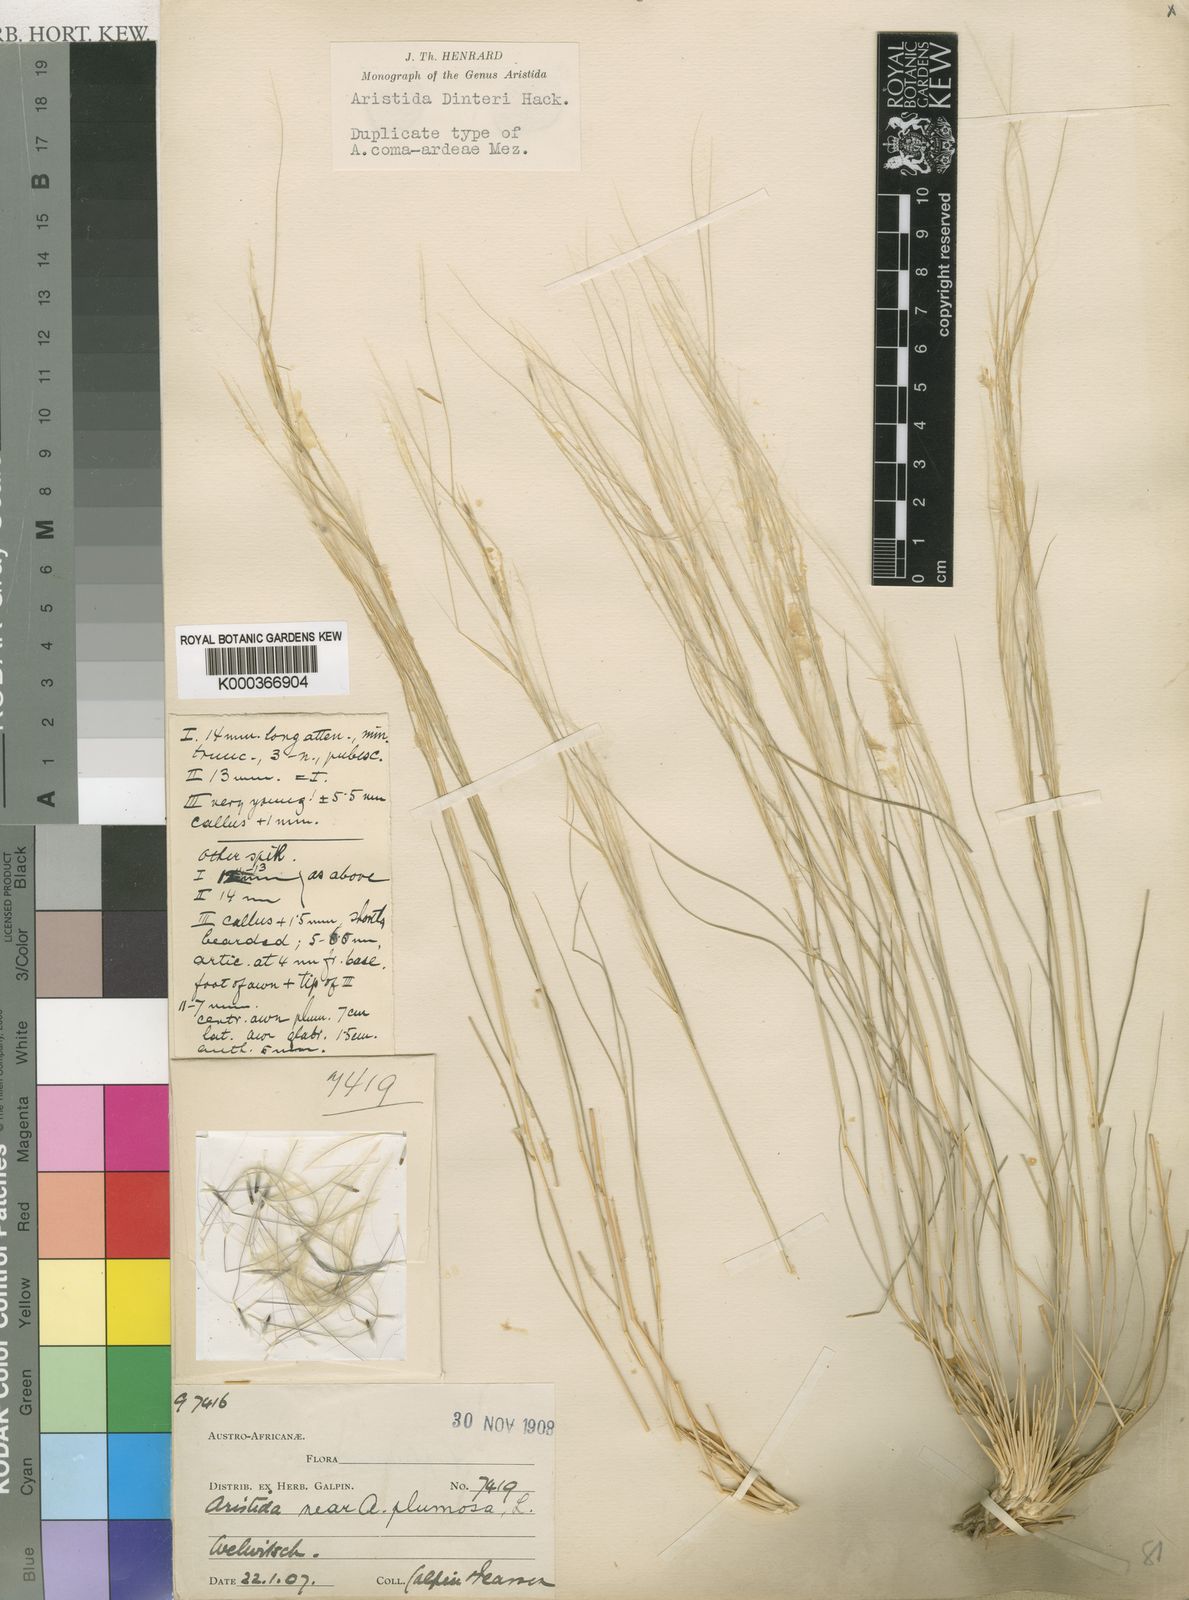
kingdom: Plantae
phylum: Tracheophyta
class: Liliopsida
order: Poales
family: Poaceae
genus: Stipagrostis
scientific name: Stipagrostis dinteri
